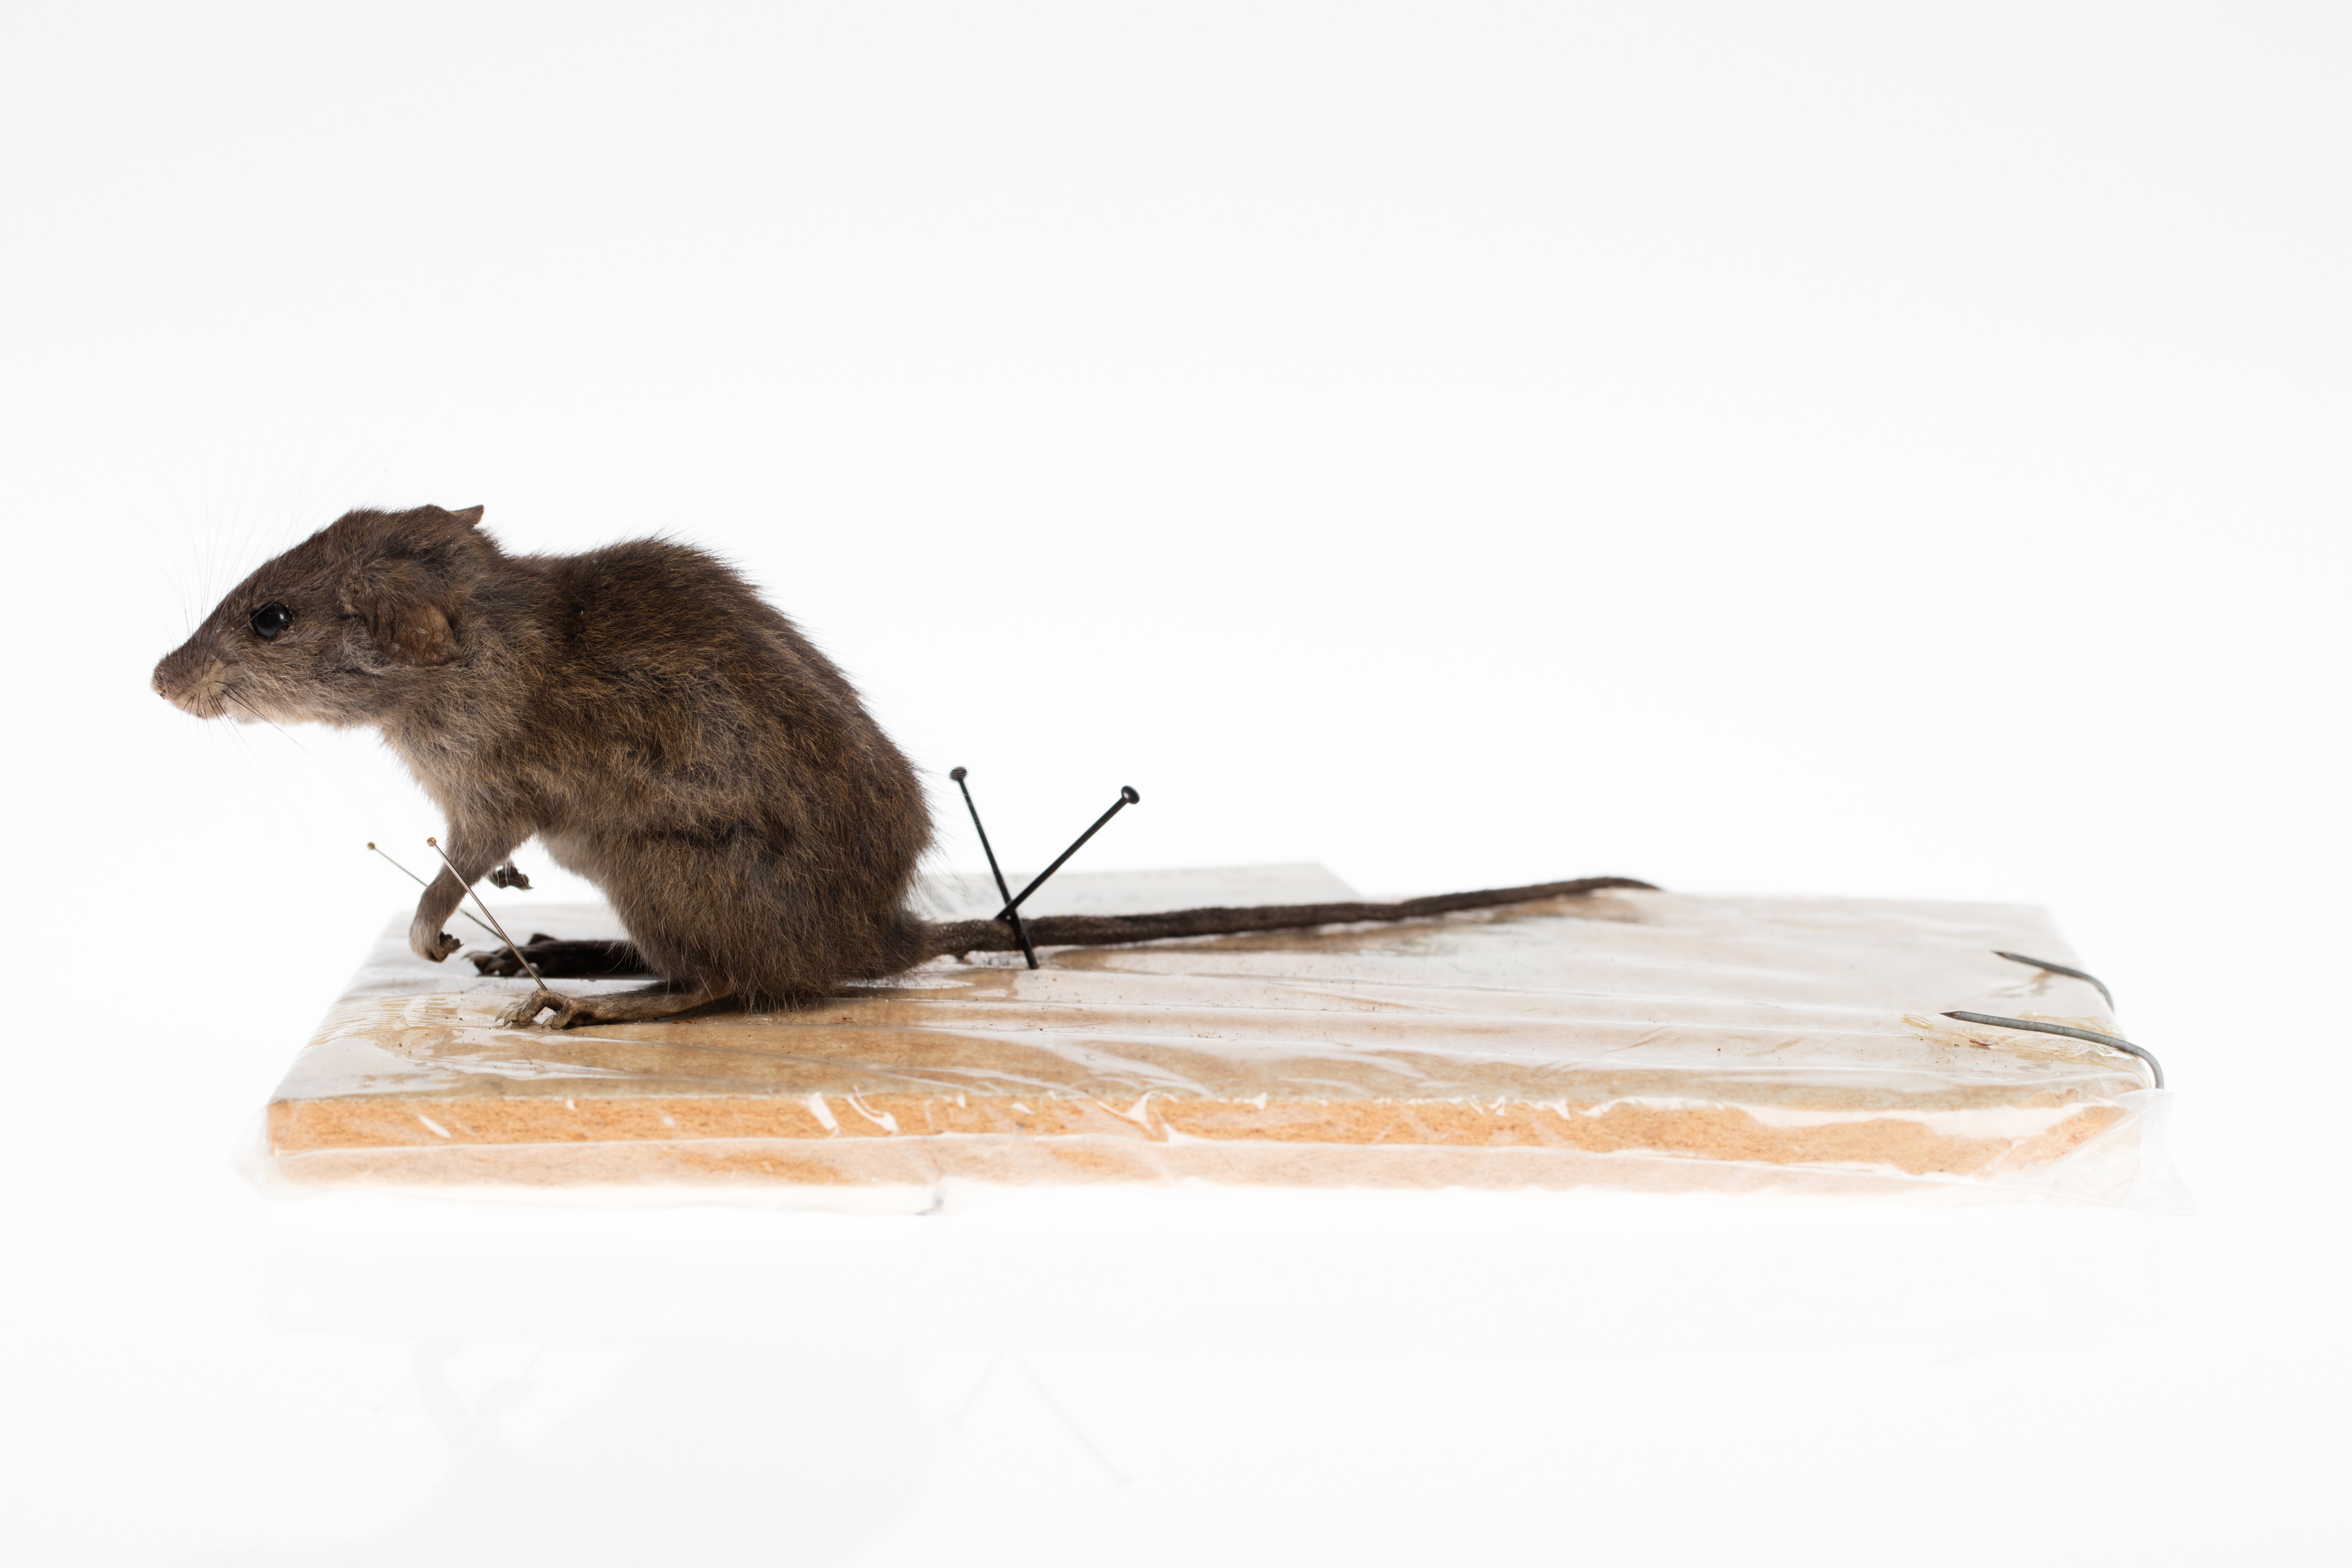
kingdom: Animalia
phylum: Chordata
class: Mammalia
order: Rodentia
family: Muridae
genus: Rattus
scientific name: Rattus rattus
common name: Black rat
